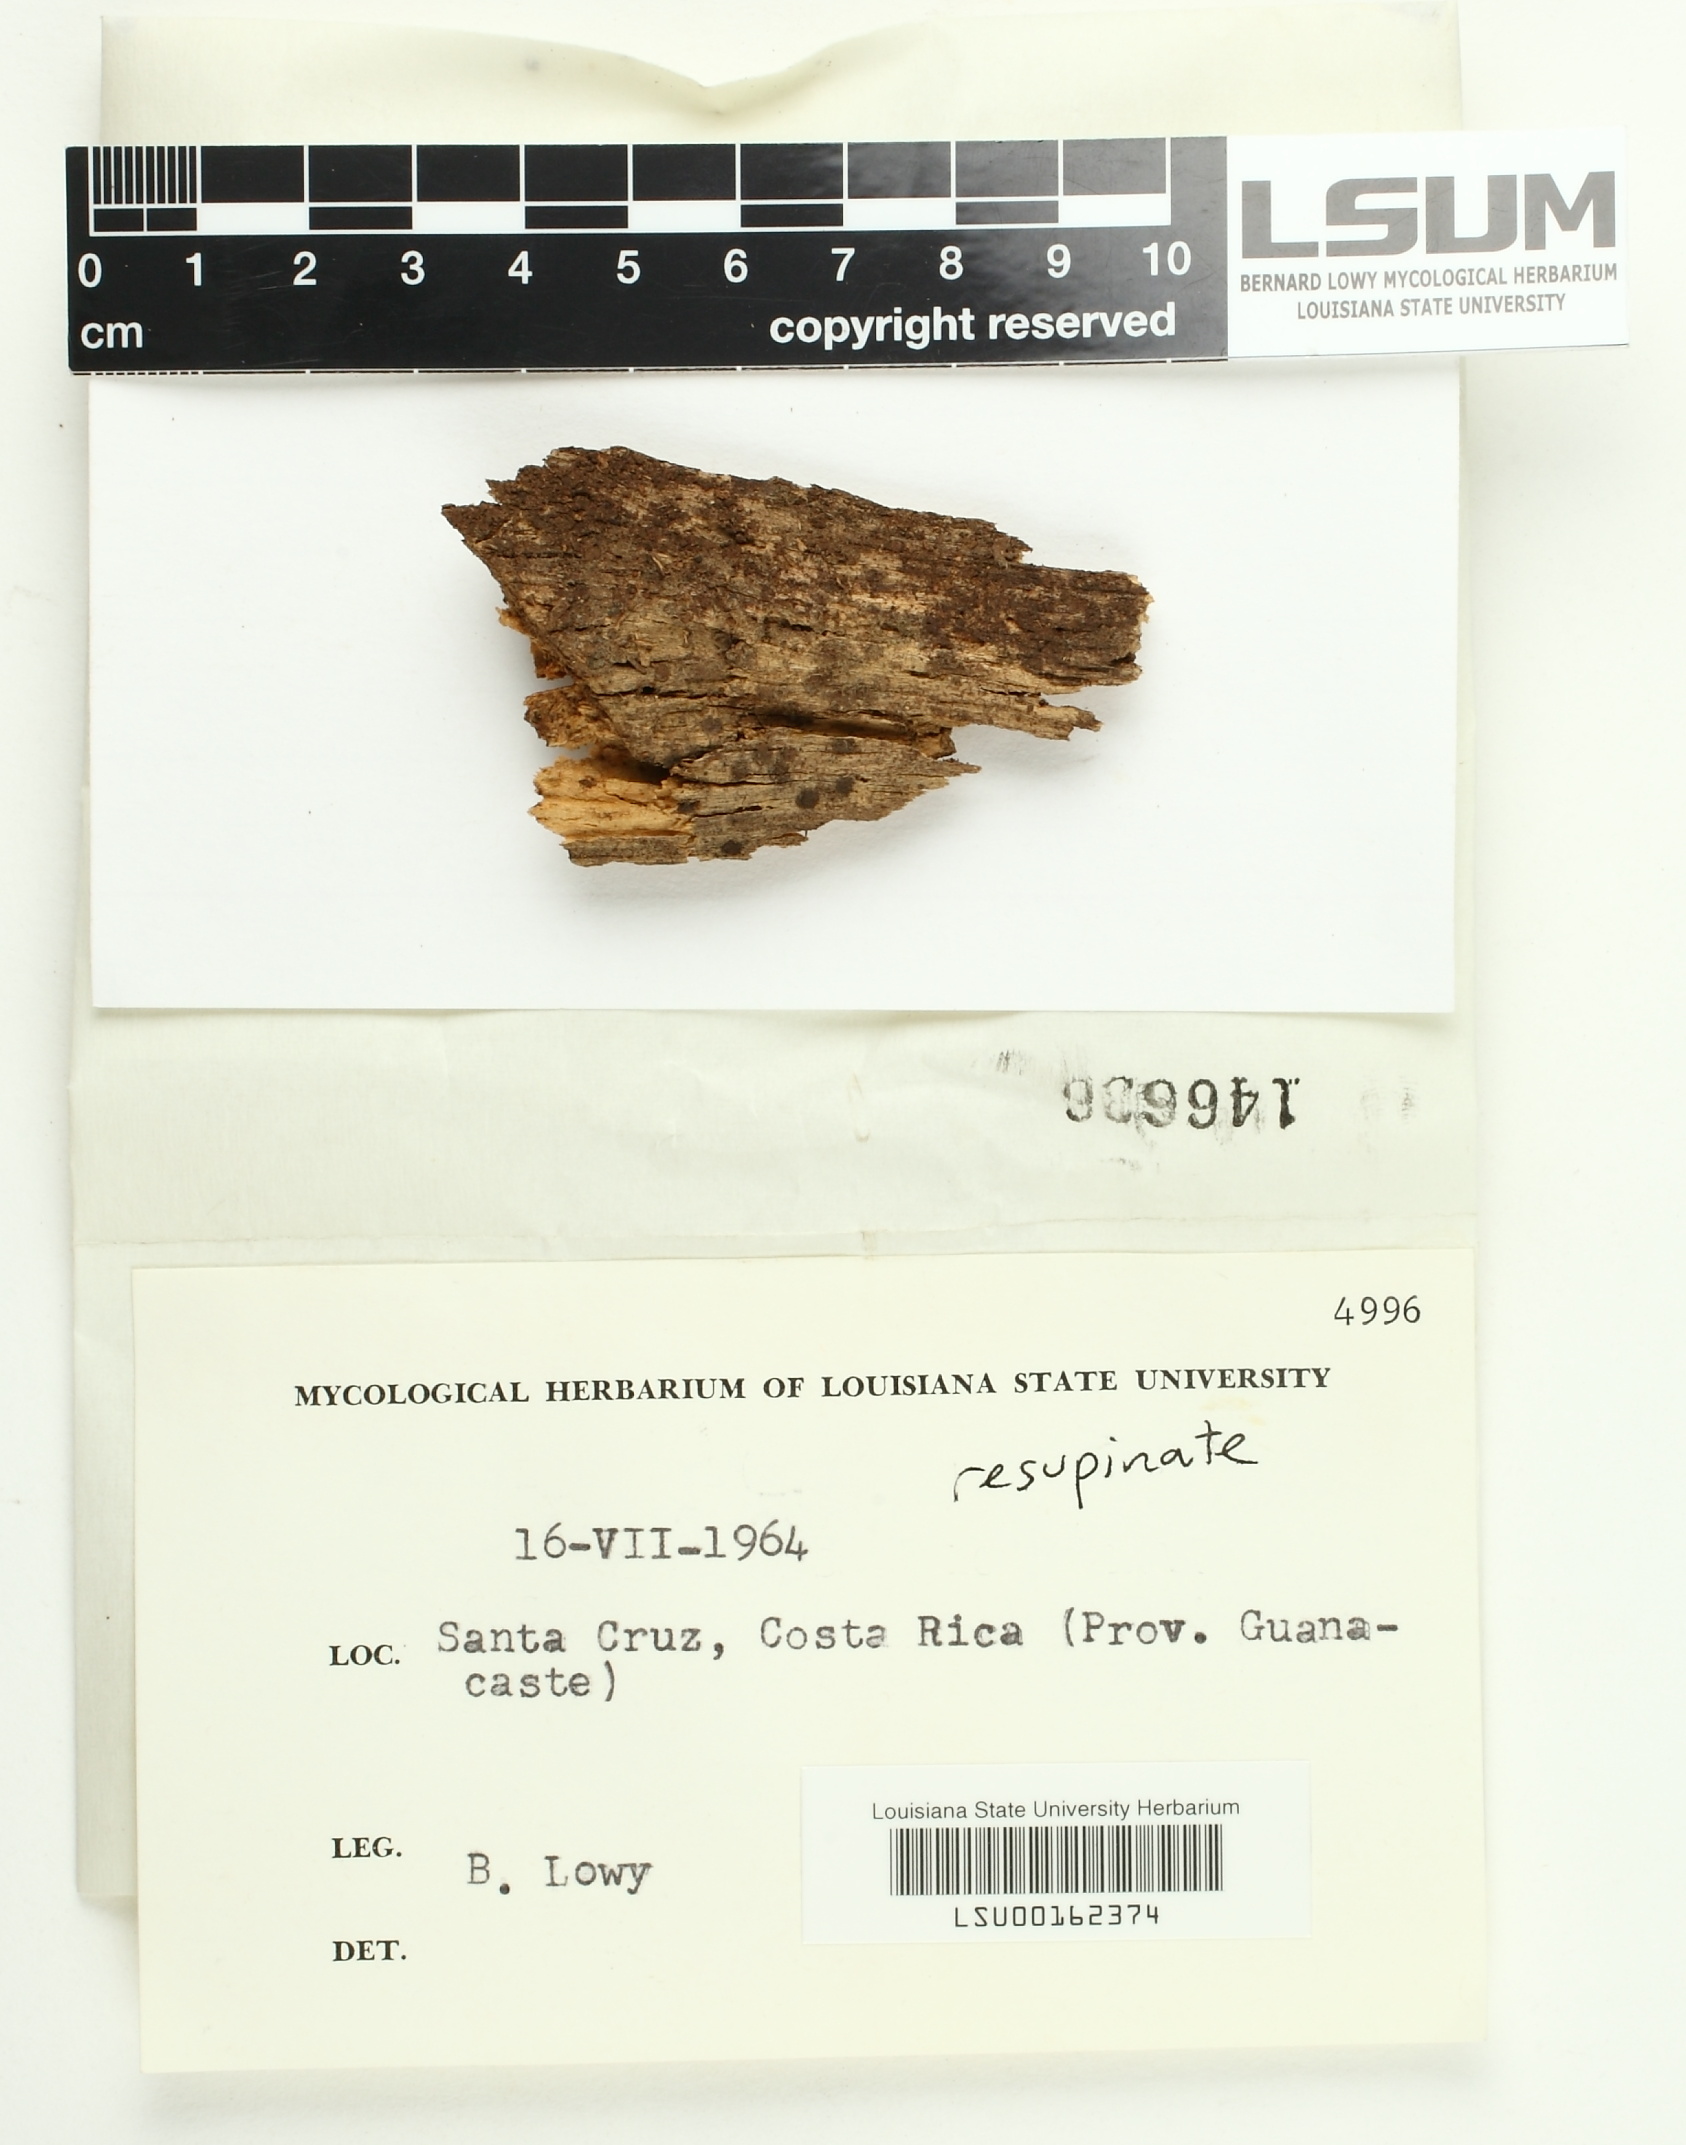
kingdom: Fungi
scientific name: Fungi
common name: Fungi
